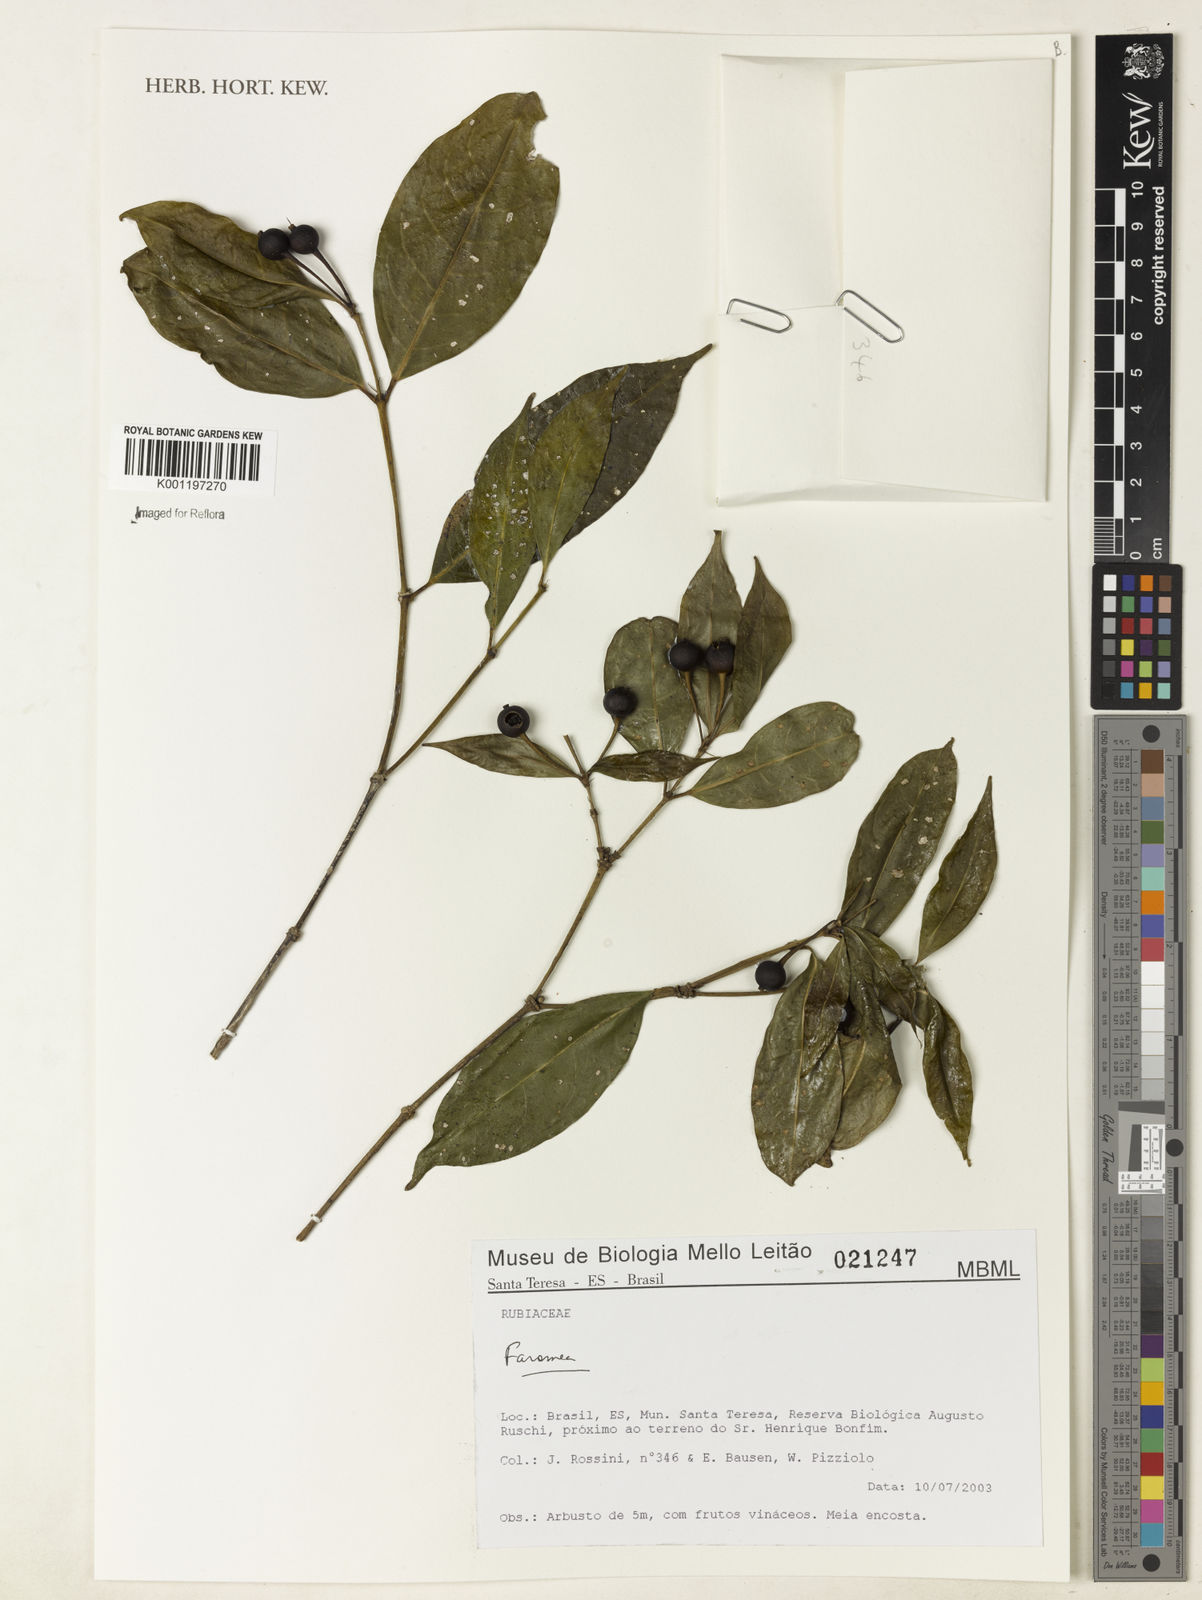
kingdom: Plantae
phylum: Tracheophyta
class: Magnoliopsida
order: Gentianales
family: Rubiaceae
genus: Faramea
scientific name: Faramea
